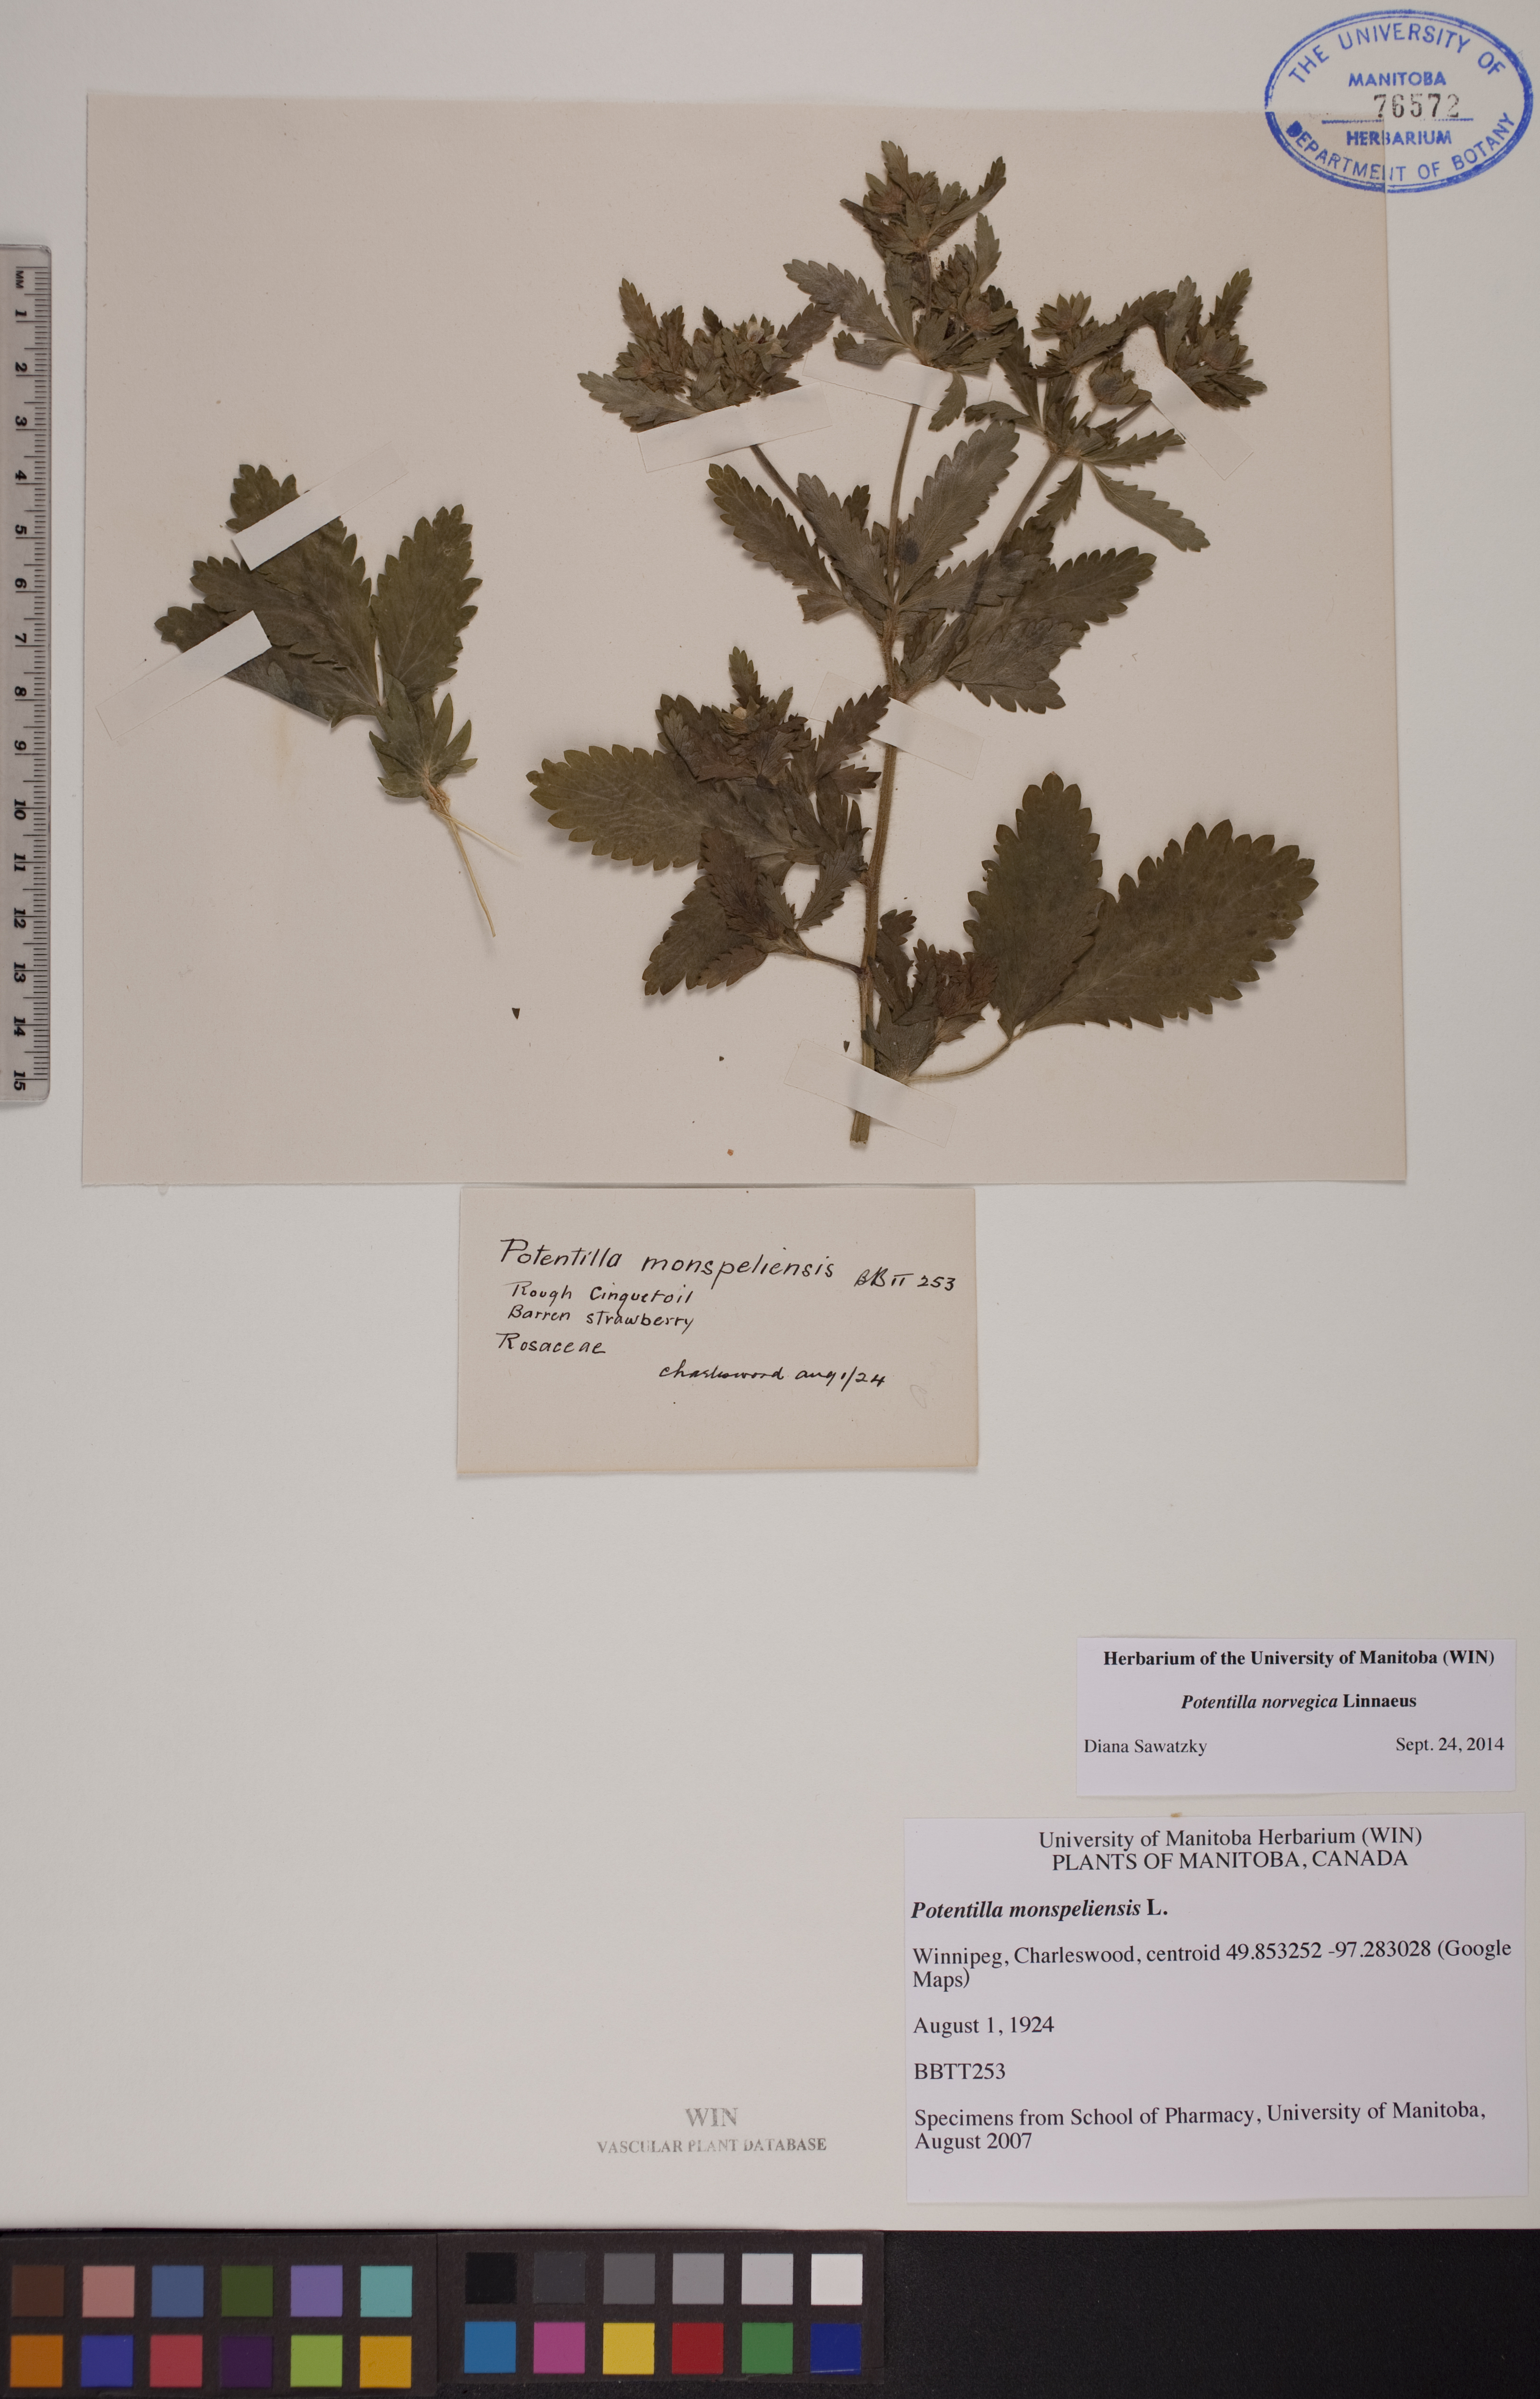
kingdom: Plantae
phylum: Tracheophyta
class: Magnoliopsida
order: Rosales
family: Rosaceae
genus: Potentilla
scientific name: Potentilla norvegica
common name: Ternate-leaved cinquefoil
